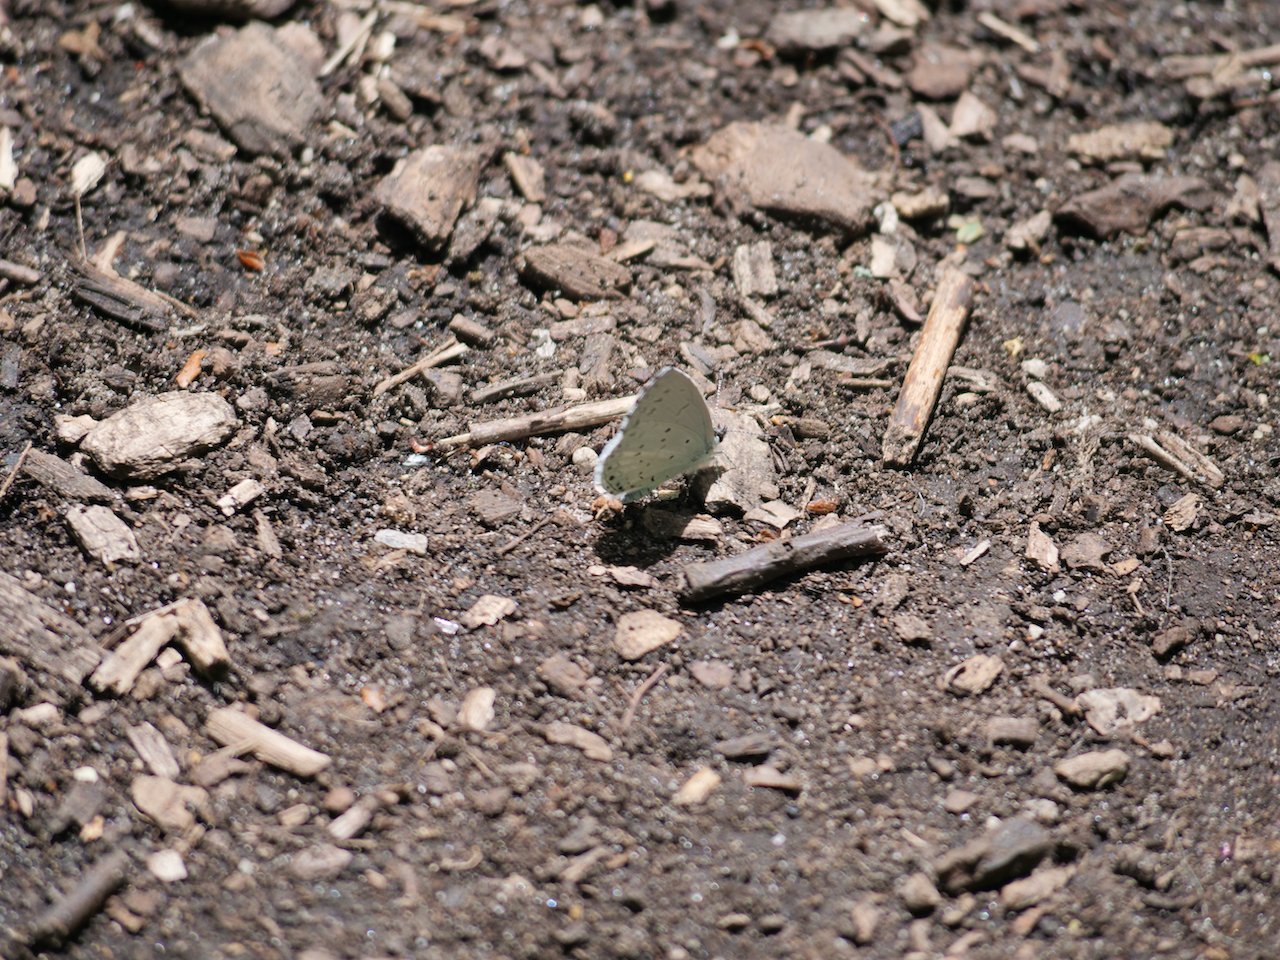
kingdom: Animalia
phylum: Arthropoda
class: Insecta
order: Lepidoptera
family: Lycaenidae
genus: Cyaniris
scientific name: Cyaniris neglecta
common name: Summer Azure
